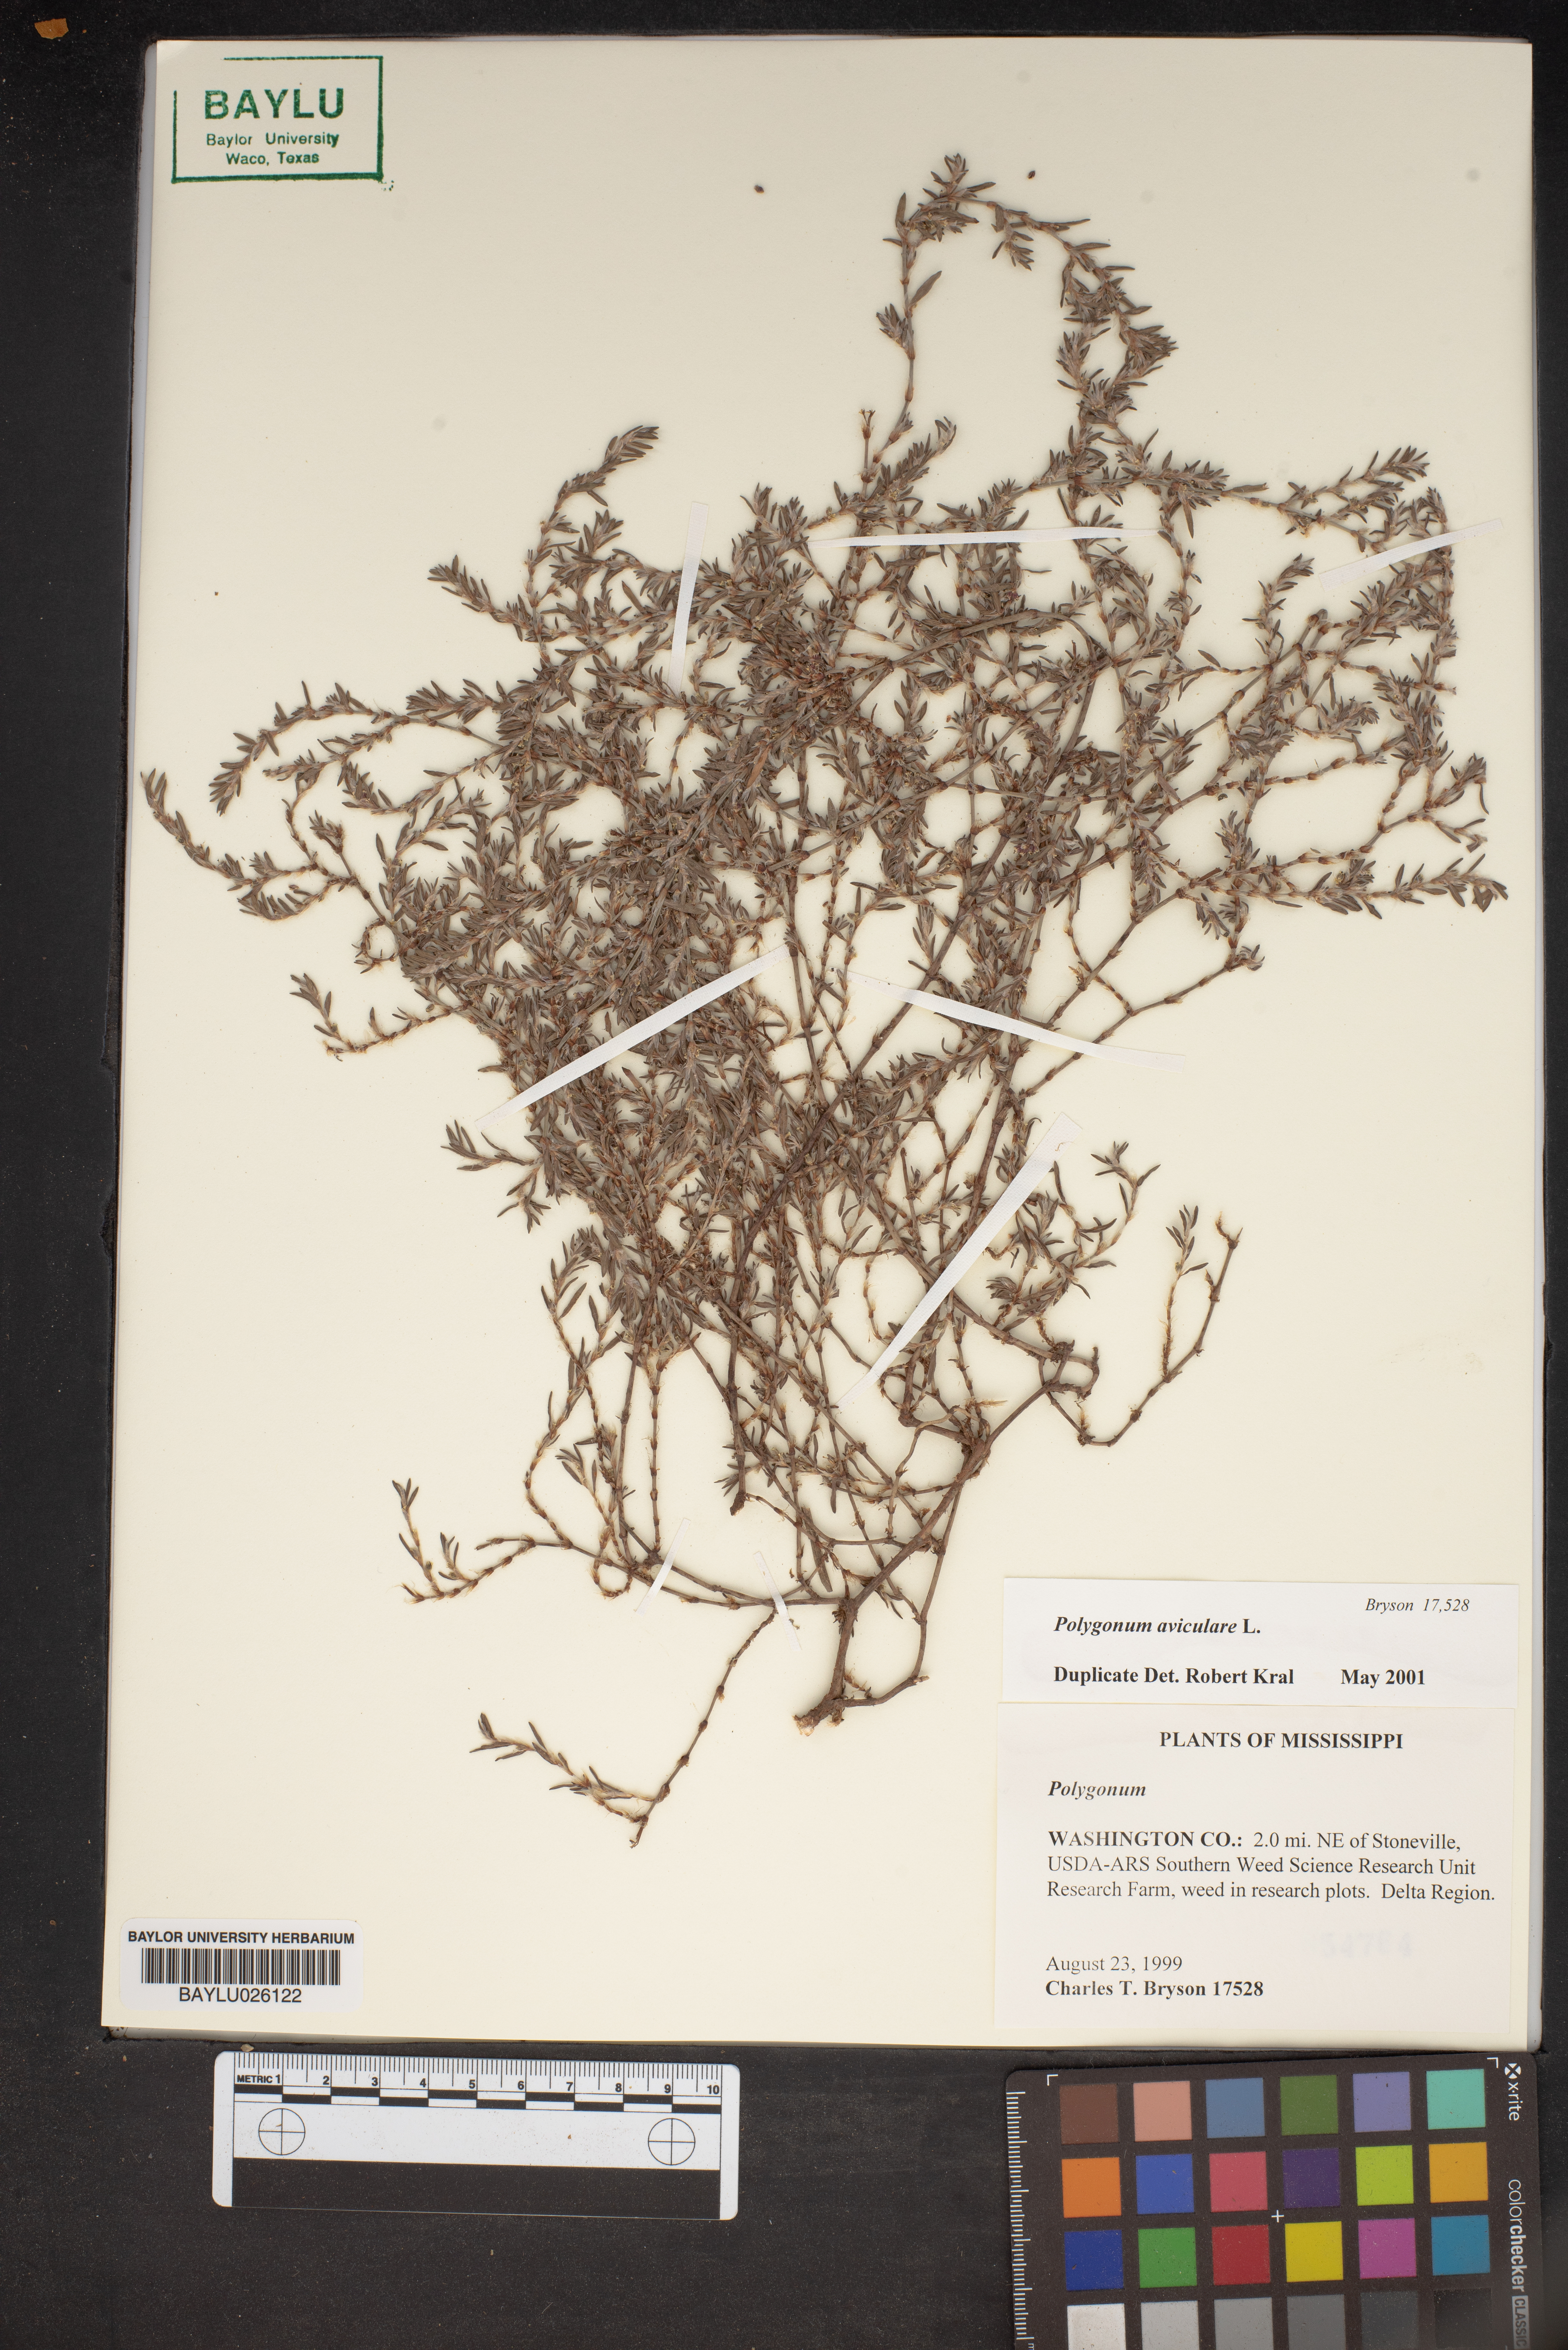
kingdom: Plantae
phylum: Tracheophyta
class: Magnoliopsida
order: Caryophyllales
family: Polygonaceae
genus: Polygonum
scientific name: Polygonum aviculare
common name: Prostrate knotweed
